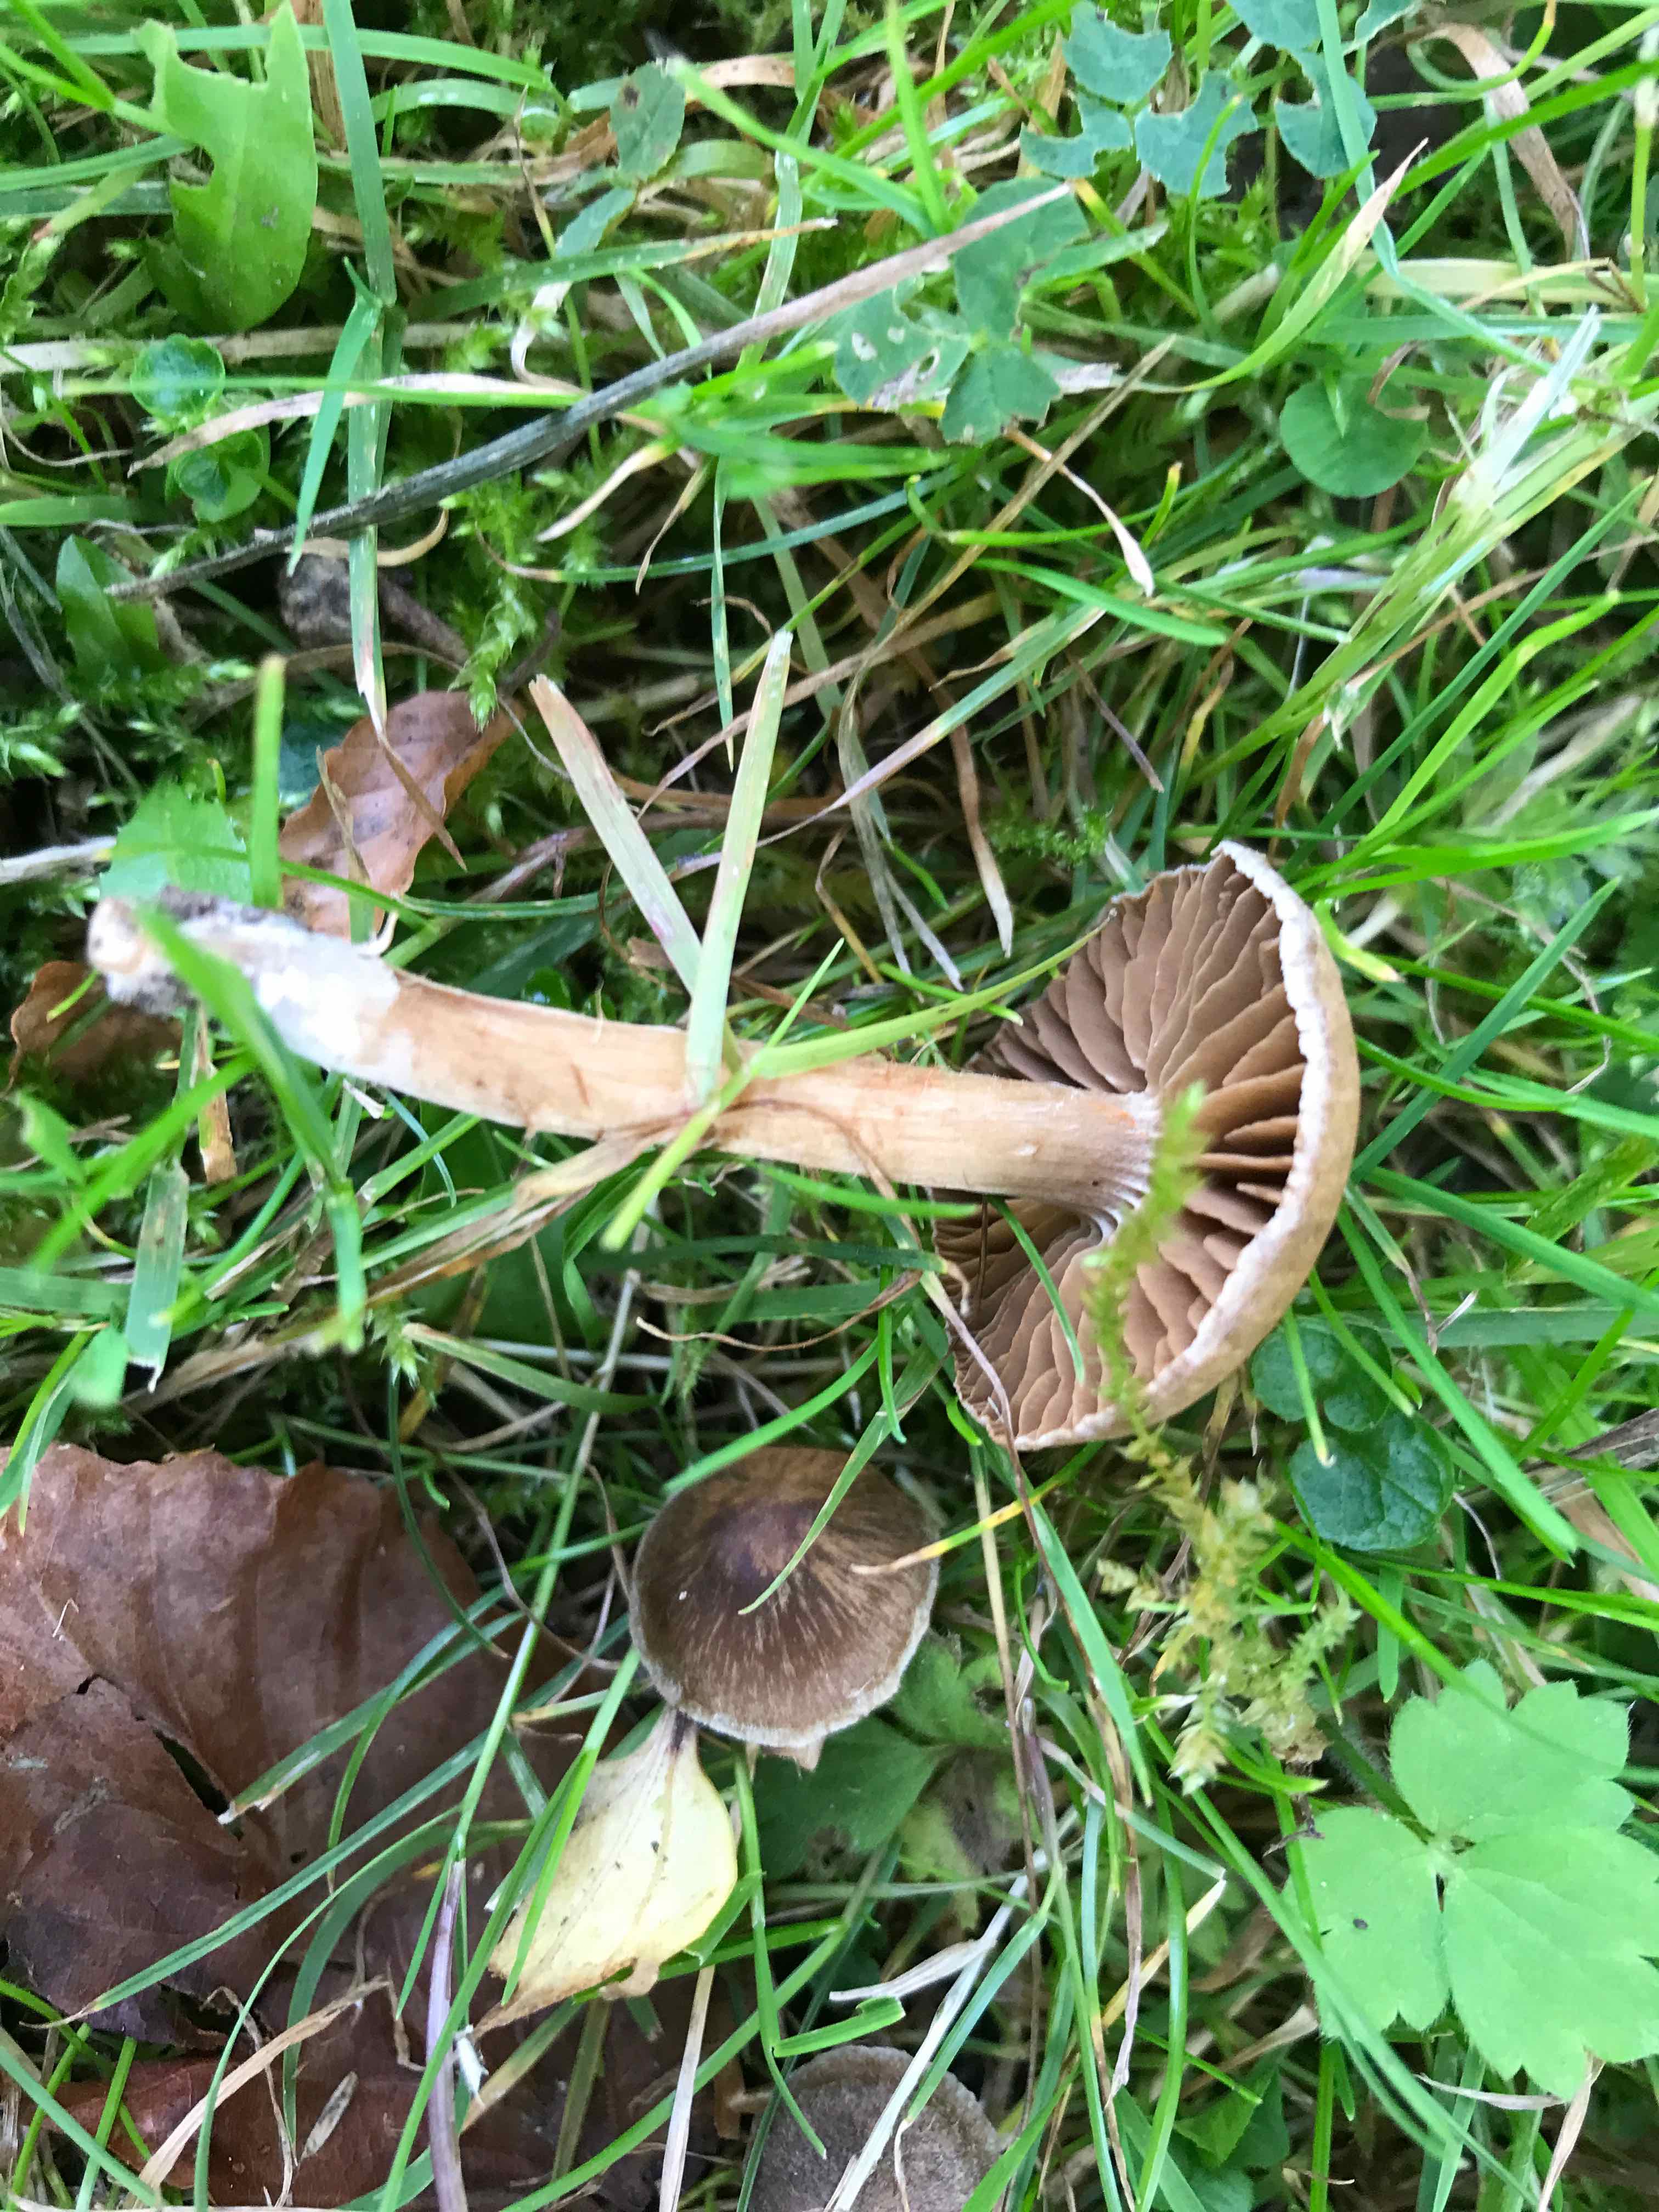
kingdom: Fungi
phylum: Basidiomycota
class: Agaricomycetes
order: Agaricales
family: Cortinariaceae
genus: Cortinarius
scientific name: Cortinarius
